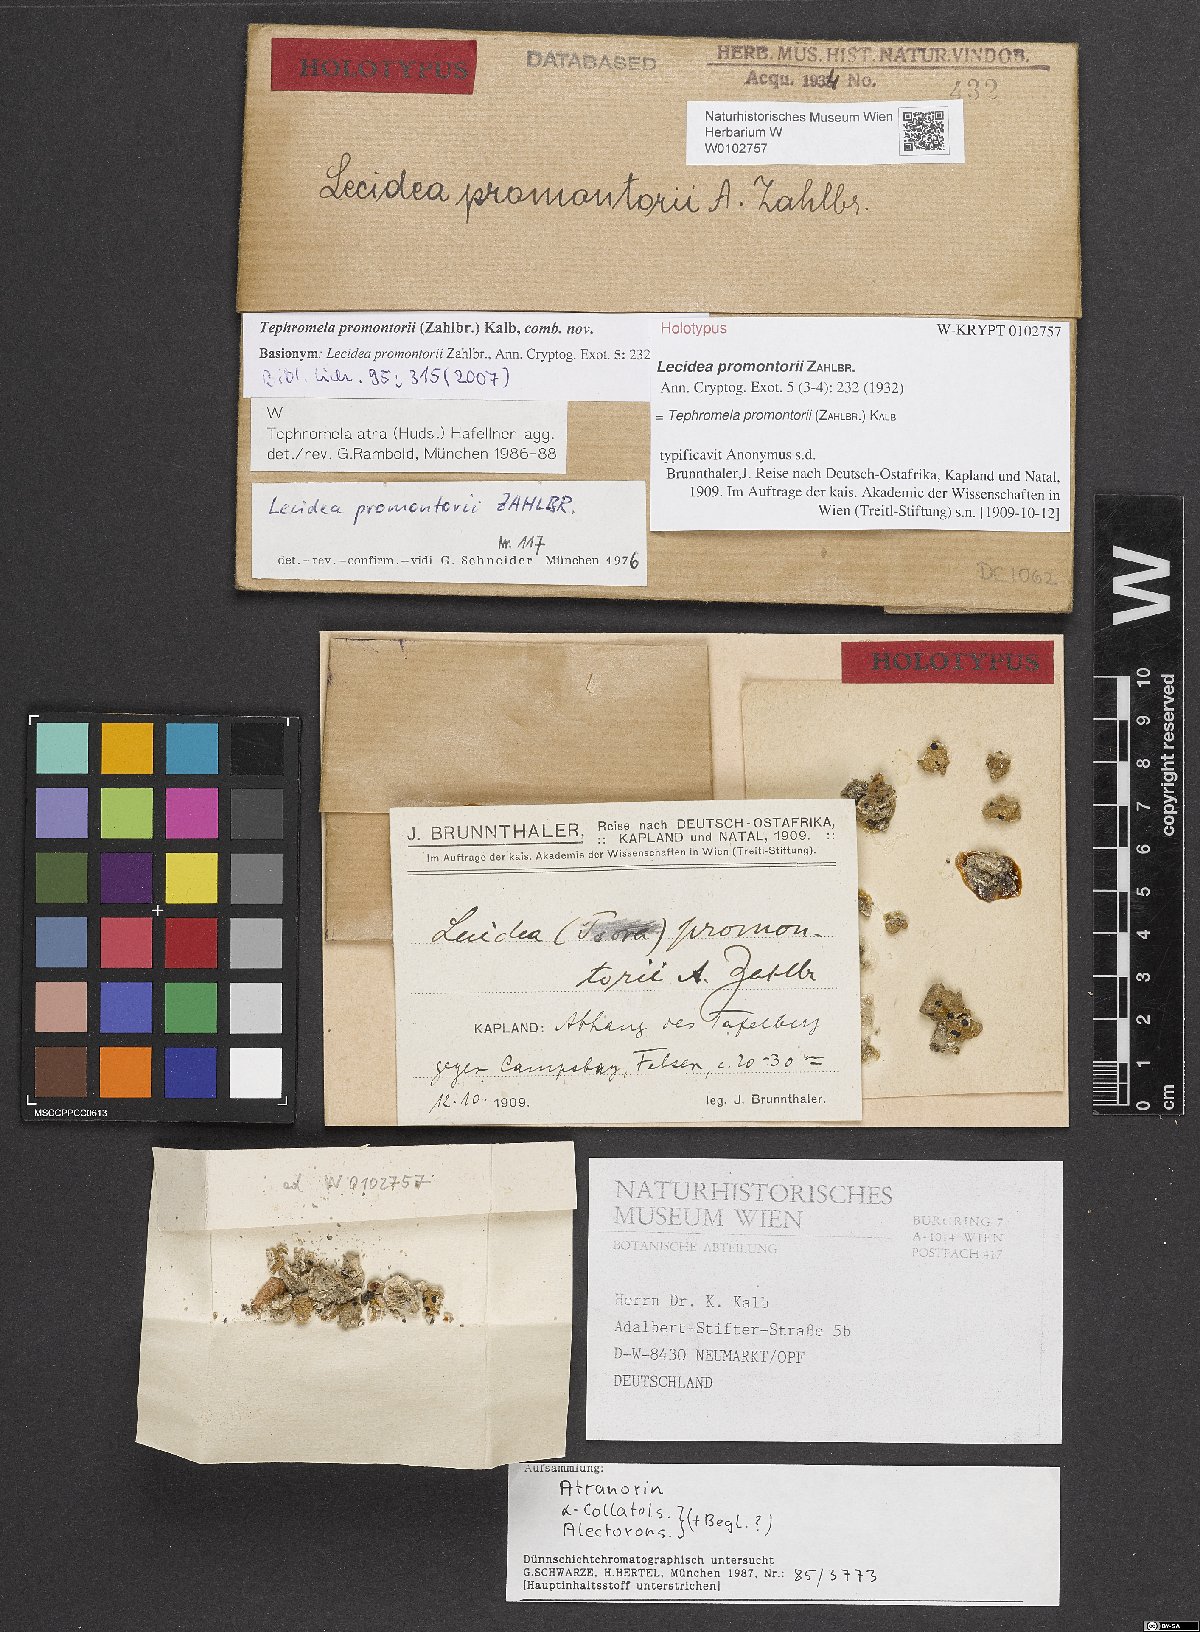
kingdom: Fungi
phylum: Ascomycota
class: Lecanoromycetes
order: Lecanorales
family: Tephromelataceae
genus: Tephromela
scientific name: Tephromela promontorii
